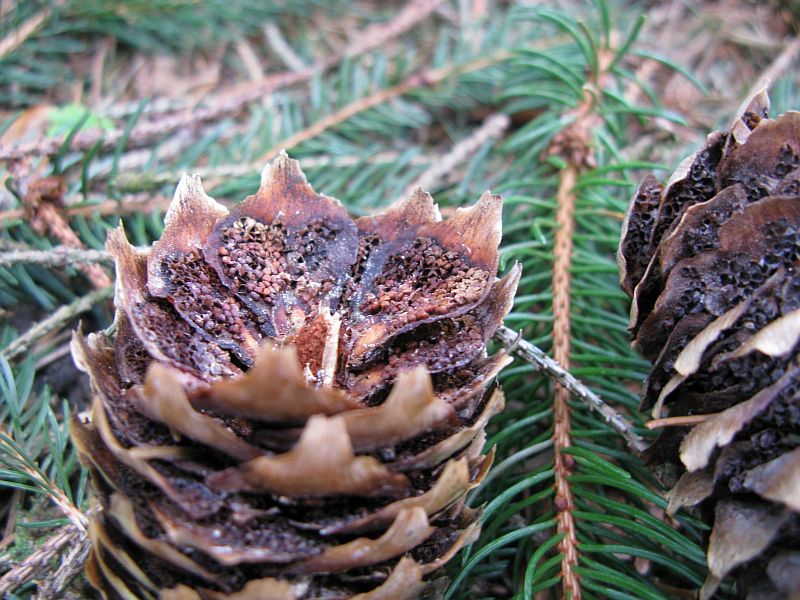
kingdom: Fungi
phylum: Basidiomycota
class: Pucciniomycetes
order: Pucciniales
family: Pucciniastraceae
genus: Thekopsora
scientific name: Thekopsora areolata
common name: grankogle-nålerust
